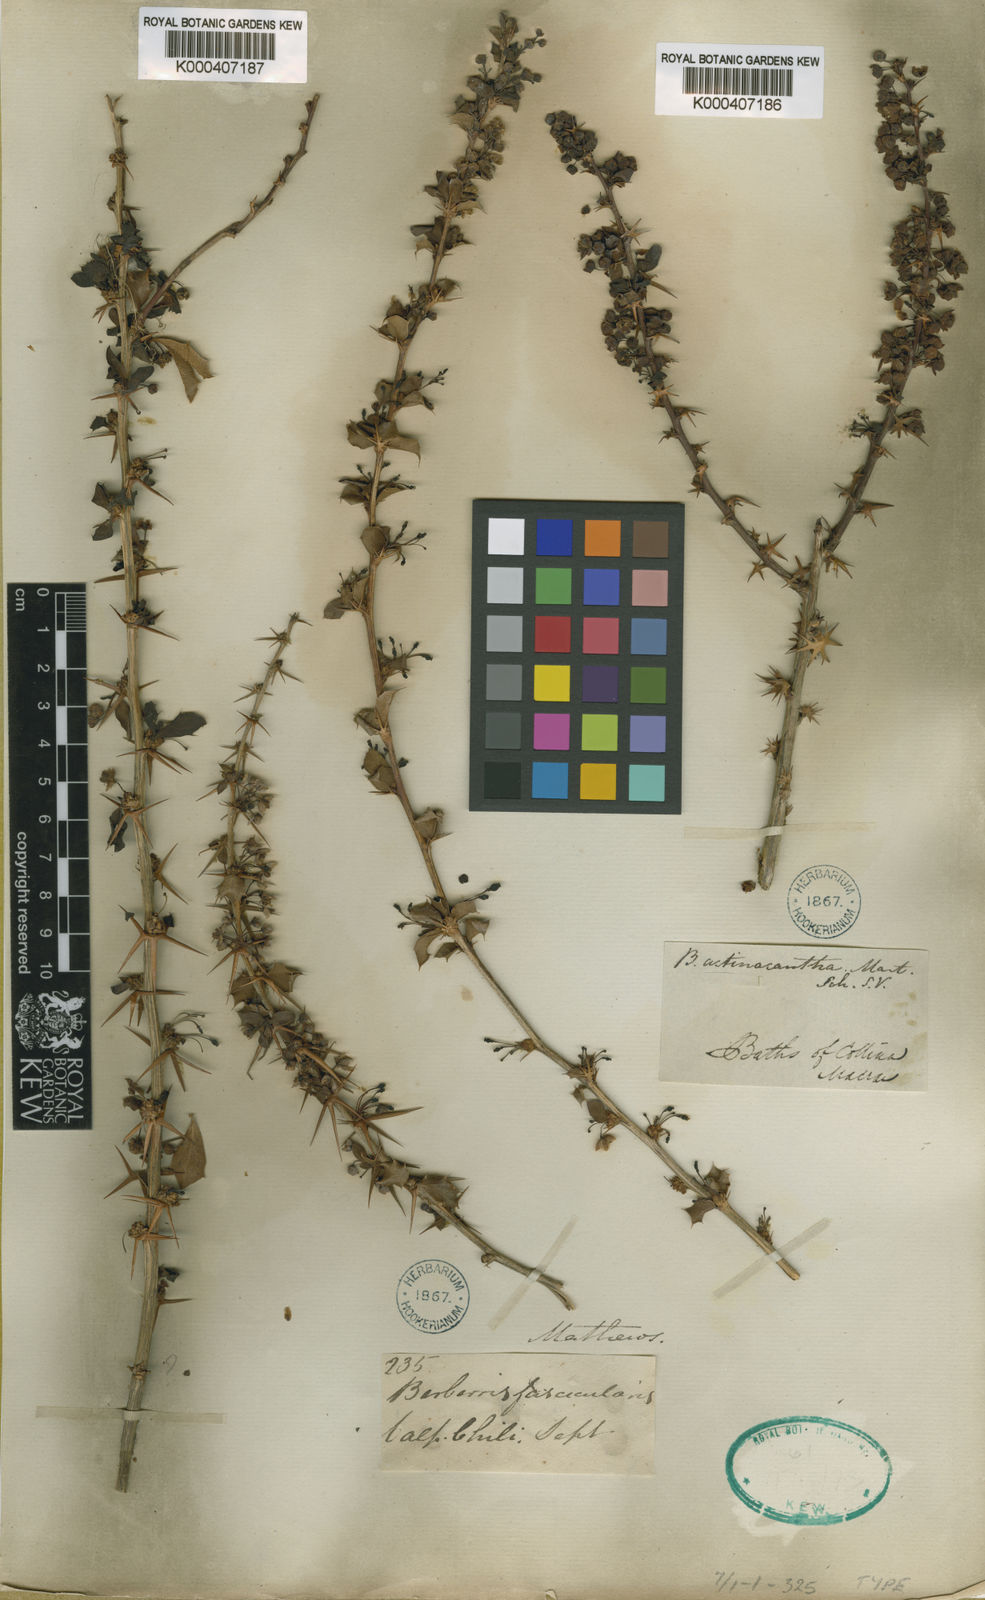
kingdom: Plantae
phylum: Tracheophyta
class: Magnoliopsida
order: Ranunculales
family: Berberidaceae
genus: Berberis
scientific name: Berberis
